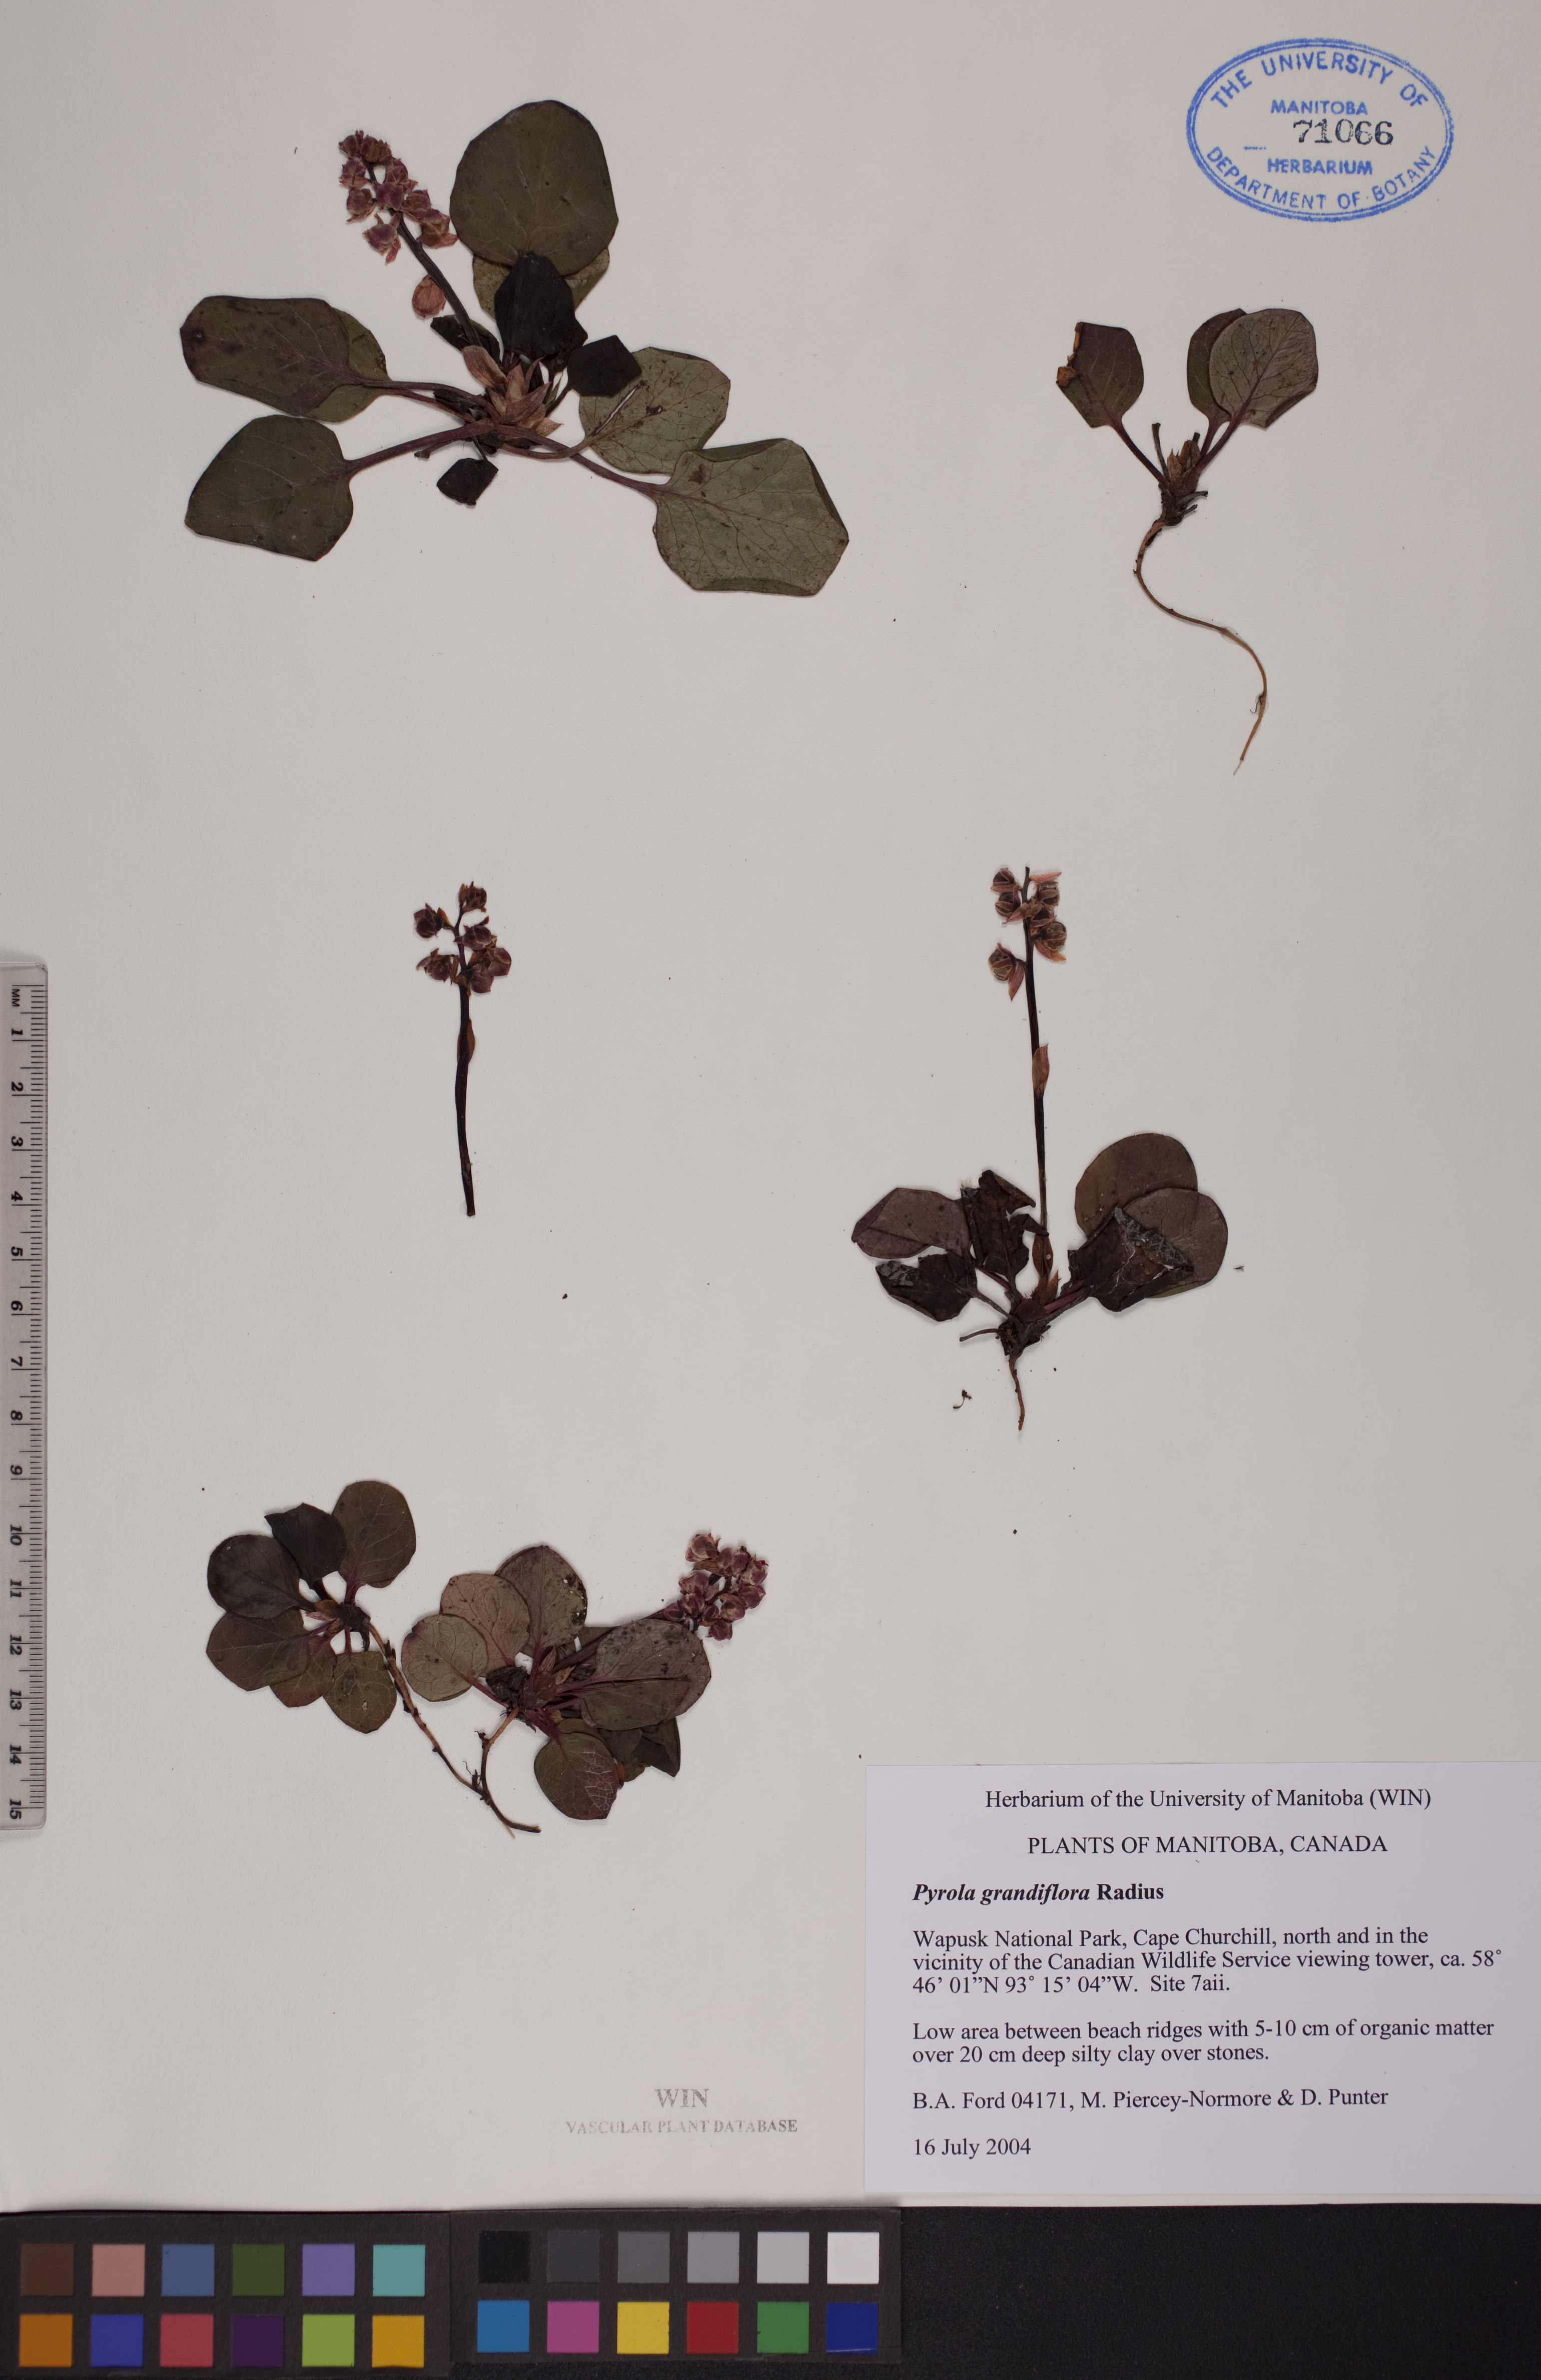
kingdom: Plantae
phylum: Tracheophyta
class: Magnoliopsida
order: Ericales
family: Ericaceae
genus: Pyrola
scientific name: Pyrola grandiflora
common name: Arctic pyrola
